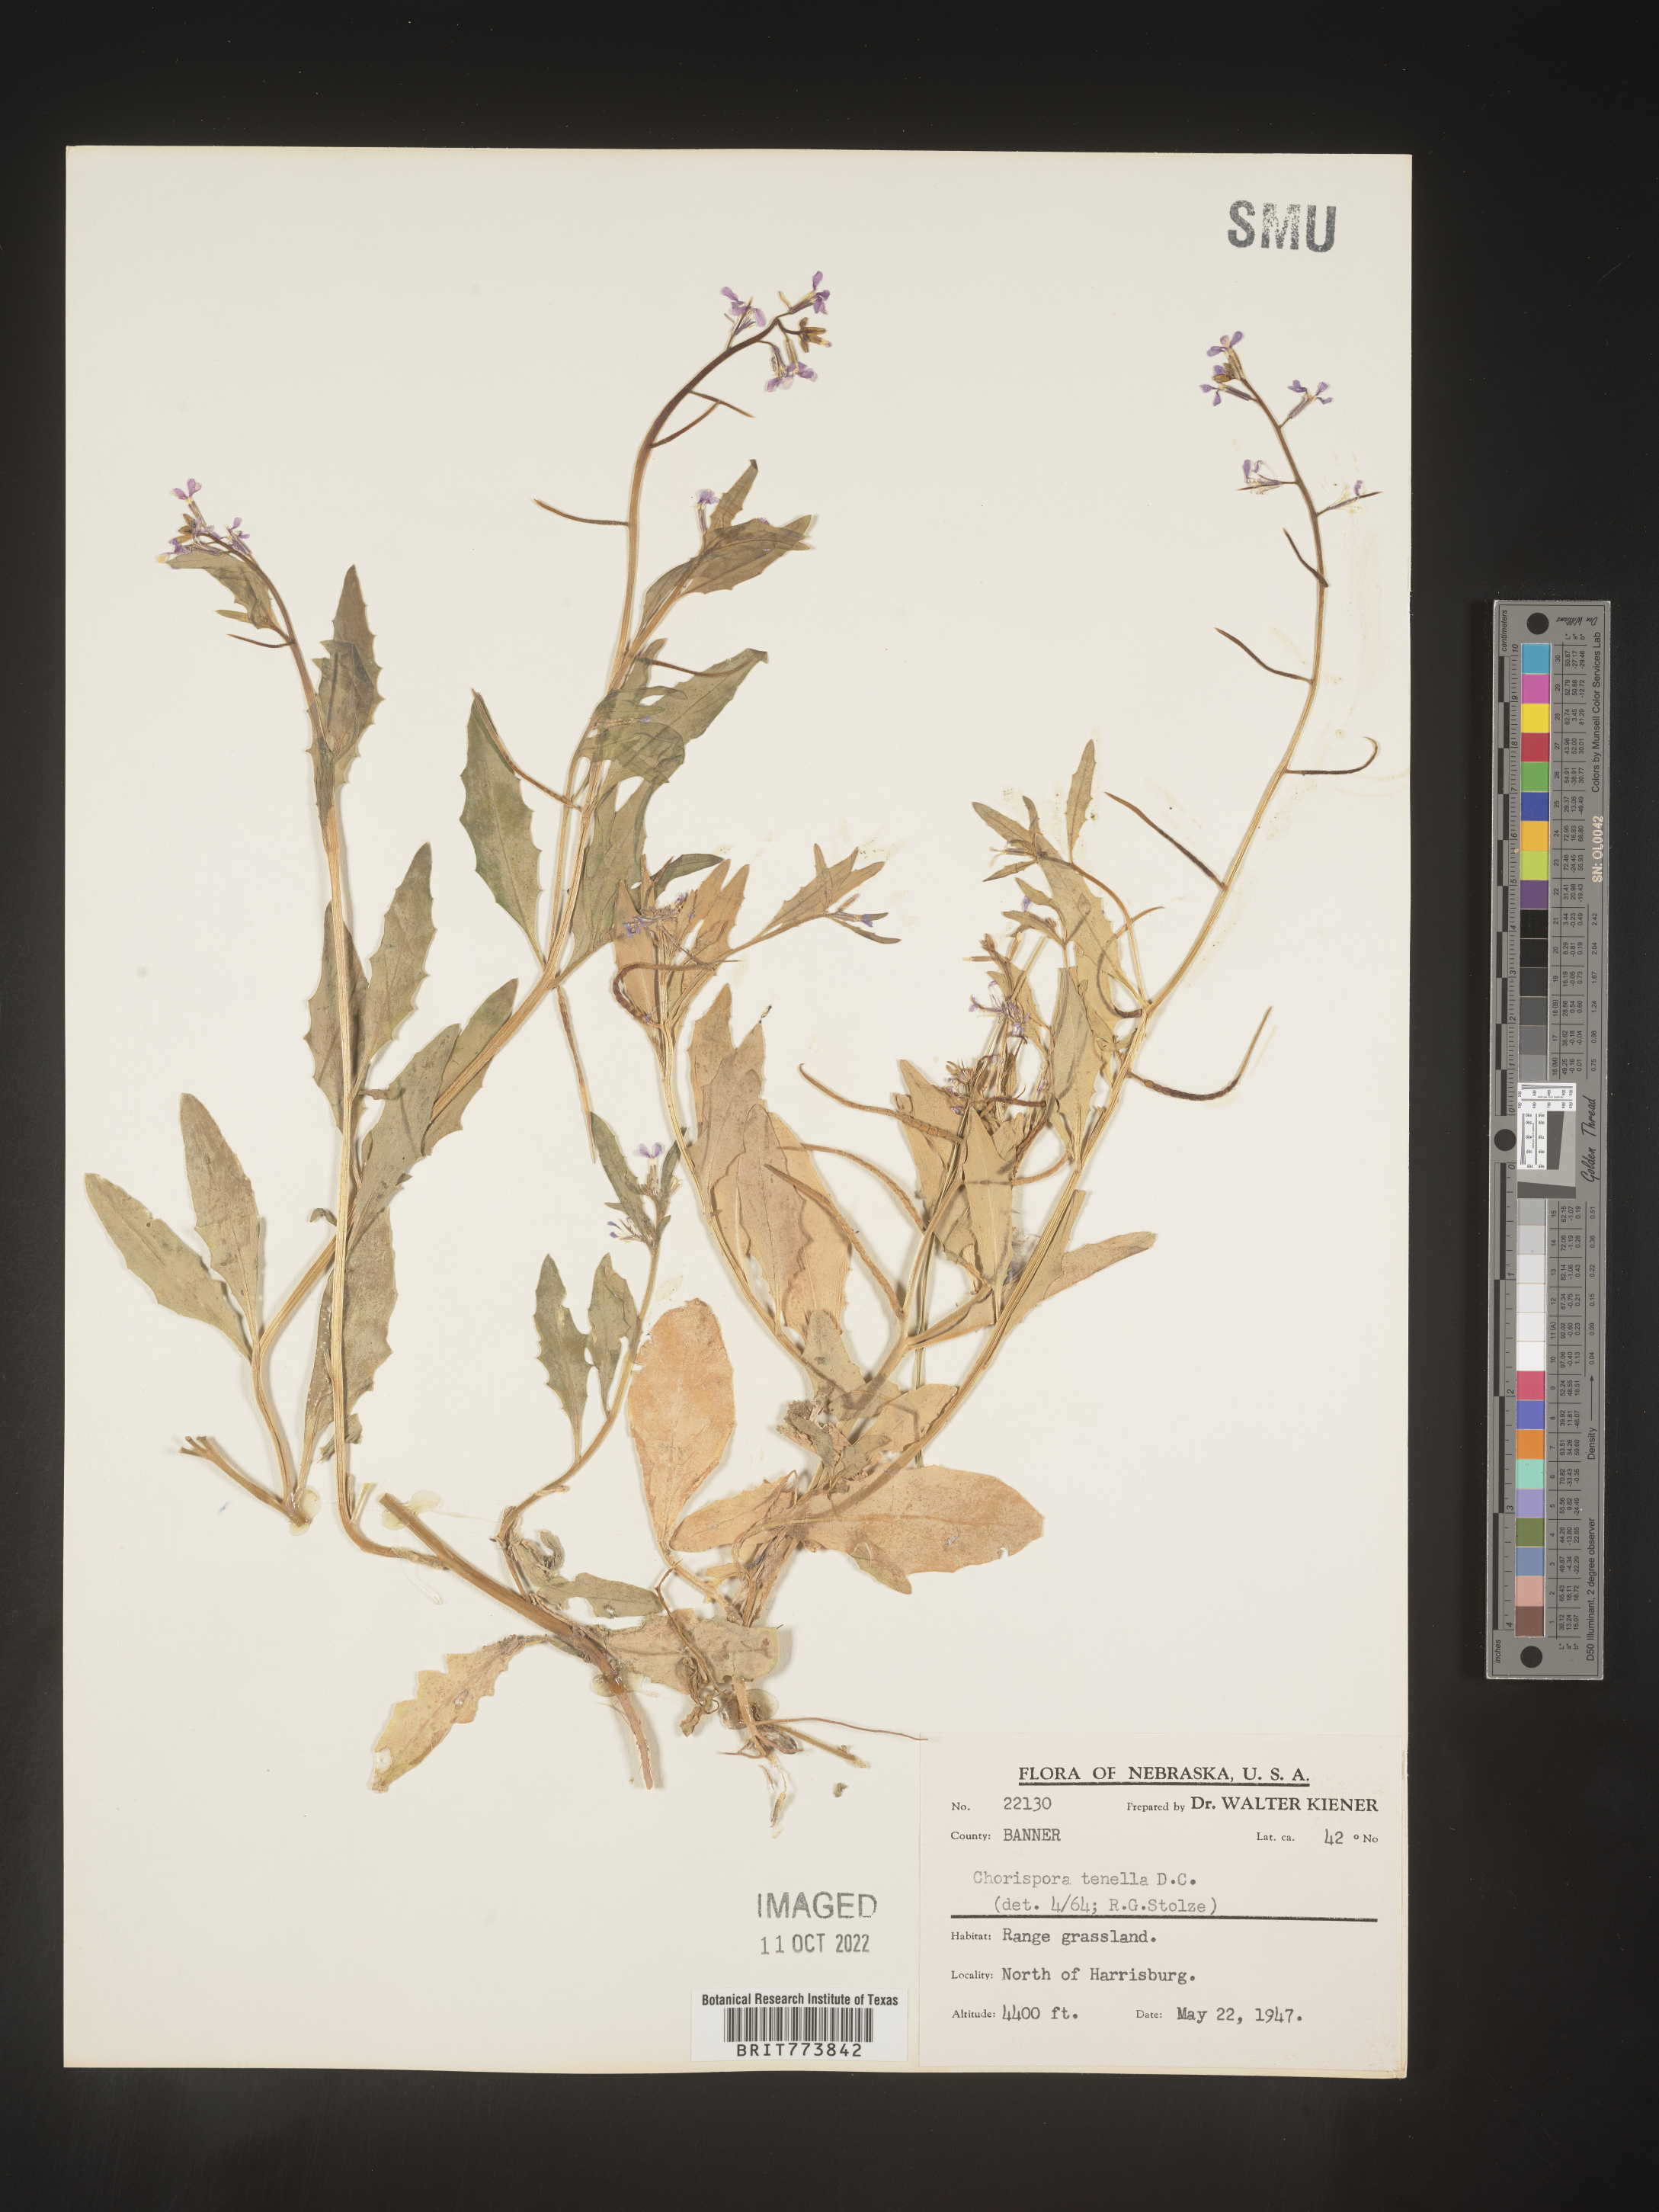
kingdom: Plantae
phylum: Tracheophyta
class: Magnoliopsida
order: Brassicales
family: Brassicaceae
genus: Chorispora
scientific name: Chorispora tenella
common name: Crossflower
